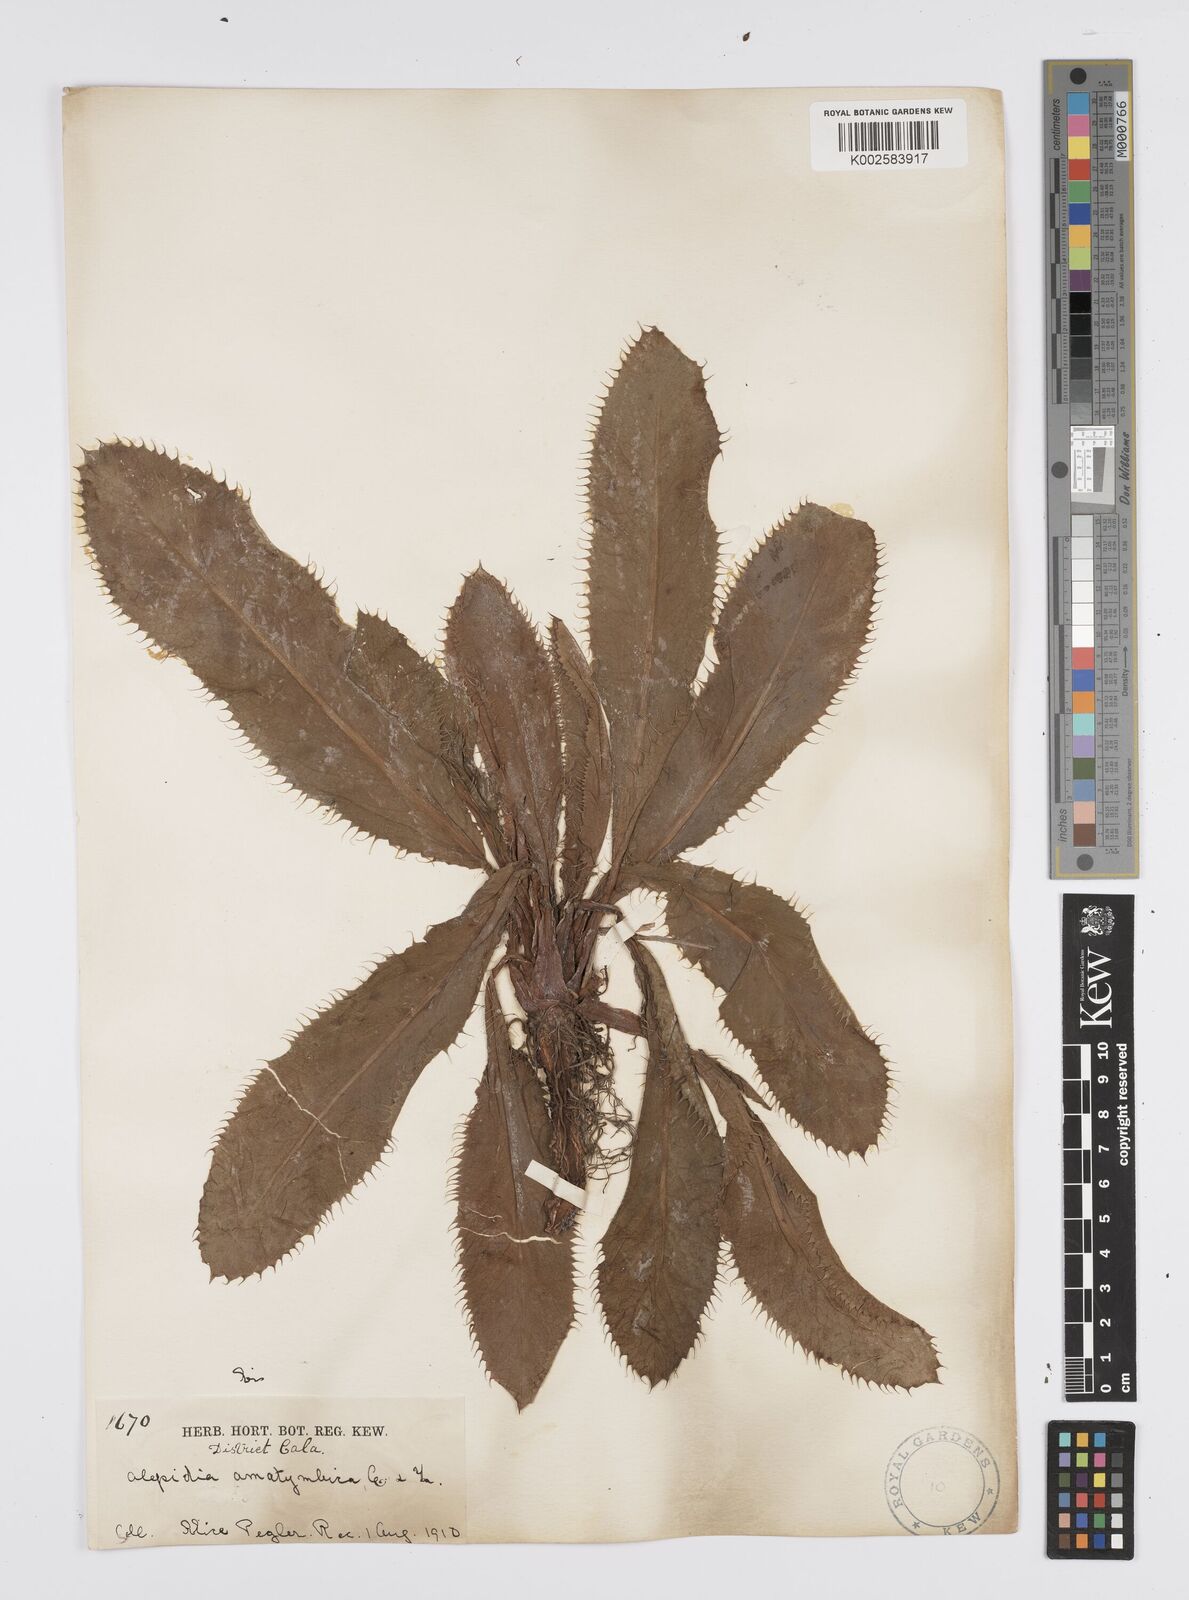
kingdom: Plantae
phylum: Tracheophyta
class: Magnoliopsida
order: Apiales
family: Apiaceae
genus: Alepidea
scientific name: Alepidea amatymbica
